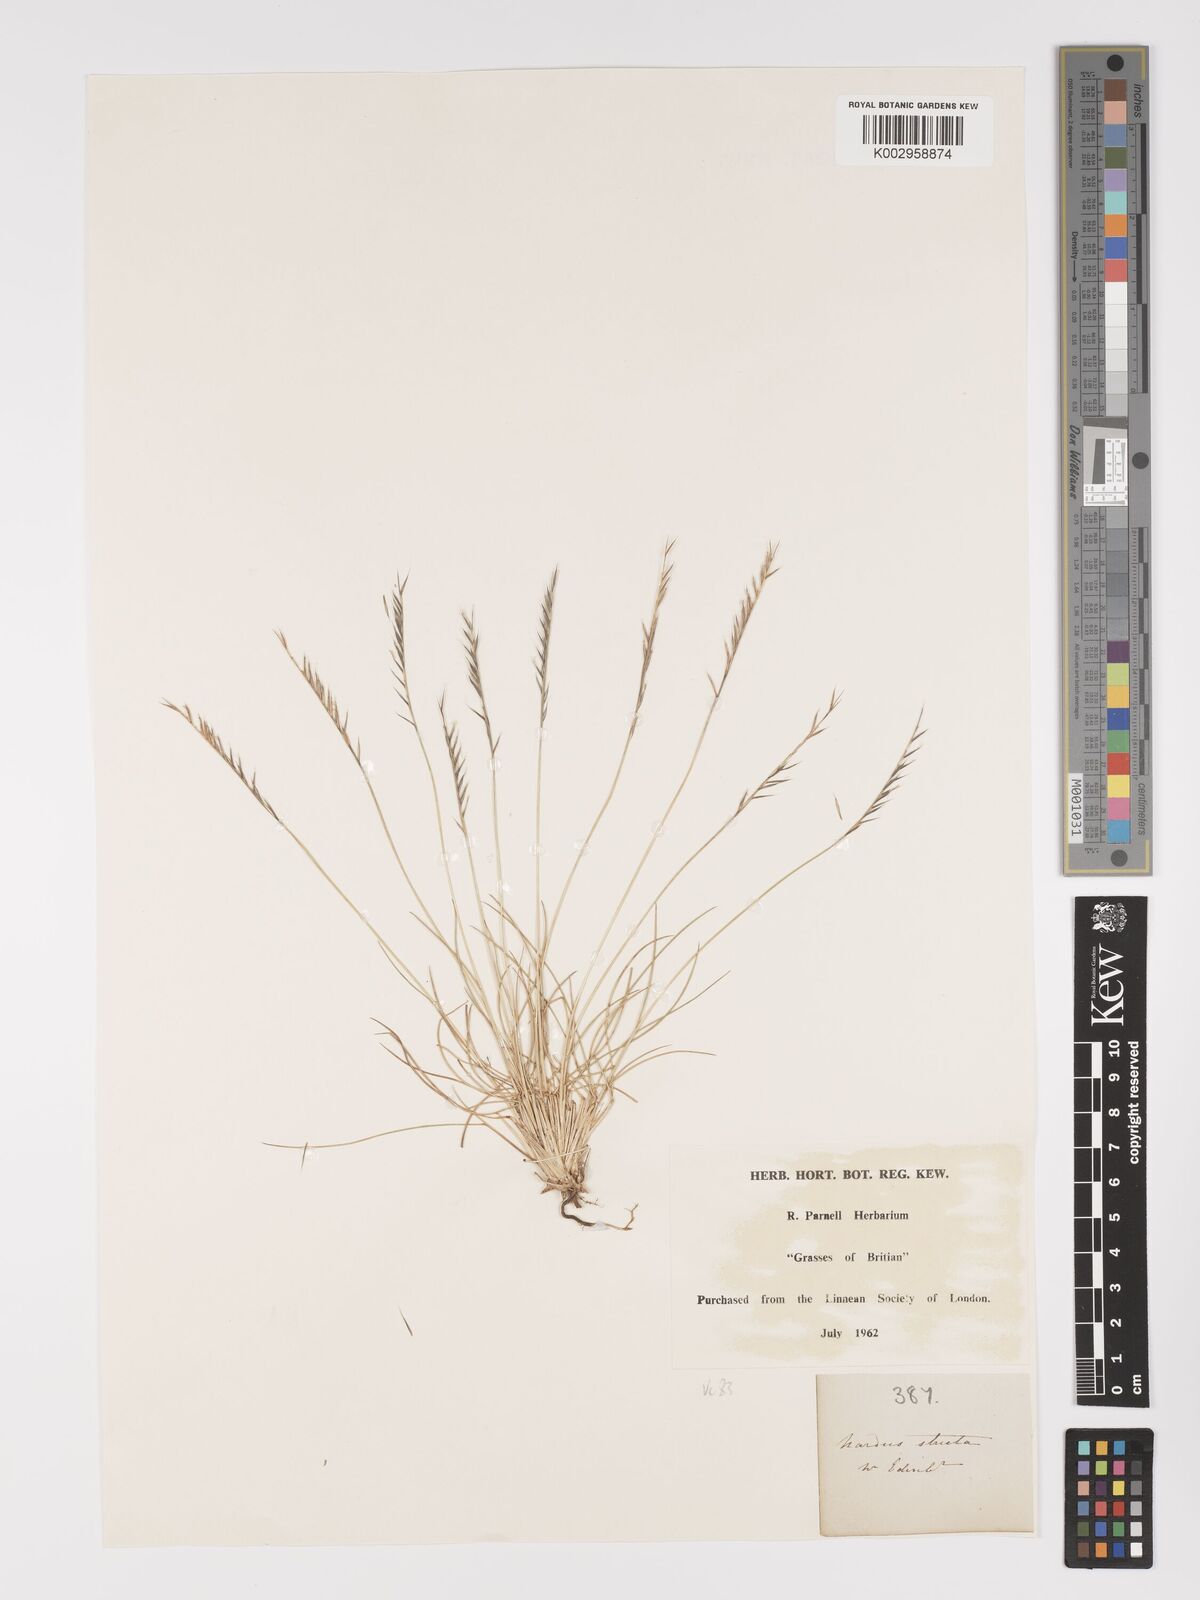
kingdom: Plantae
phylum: Tracheophyta
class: Liliopsida
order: Poales
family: Poaceae
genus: Nardus
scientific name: Nardus stricta
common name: Mat-grass
